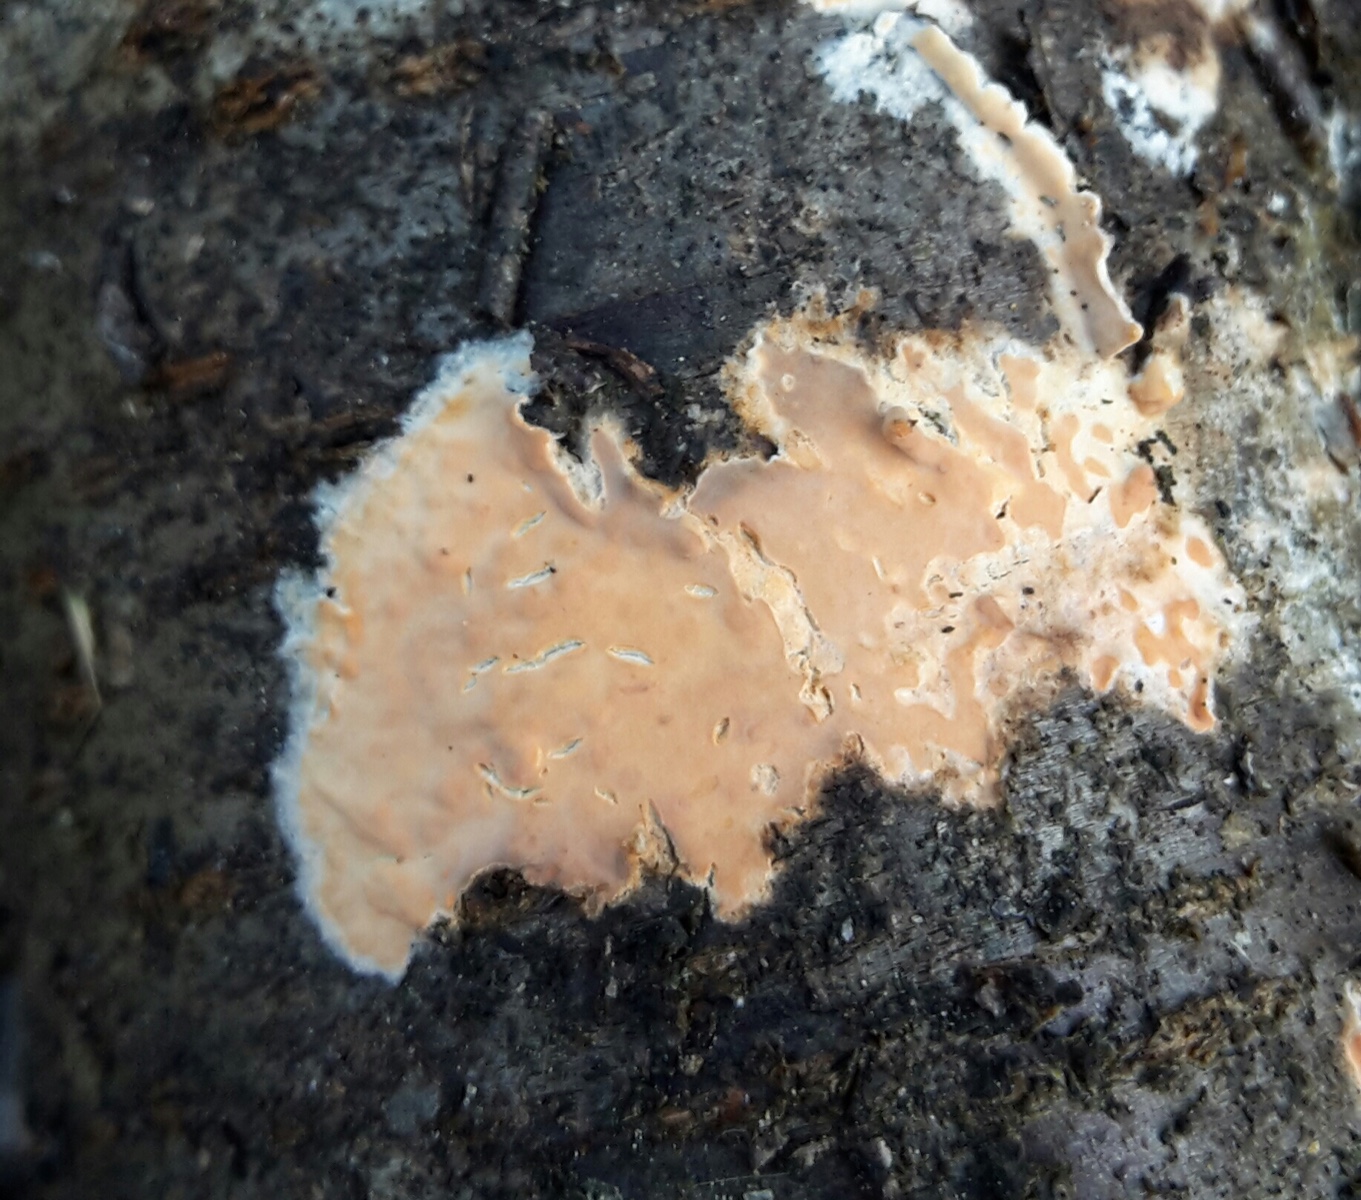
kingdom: Fungi
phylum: Basidiomycota
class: Agaricomycetes
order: Russulales
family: Peniophoraceae
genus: Peniophora
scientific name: Peniophora incarnata
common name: laksefarvet voksskind
